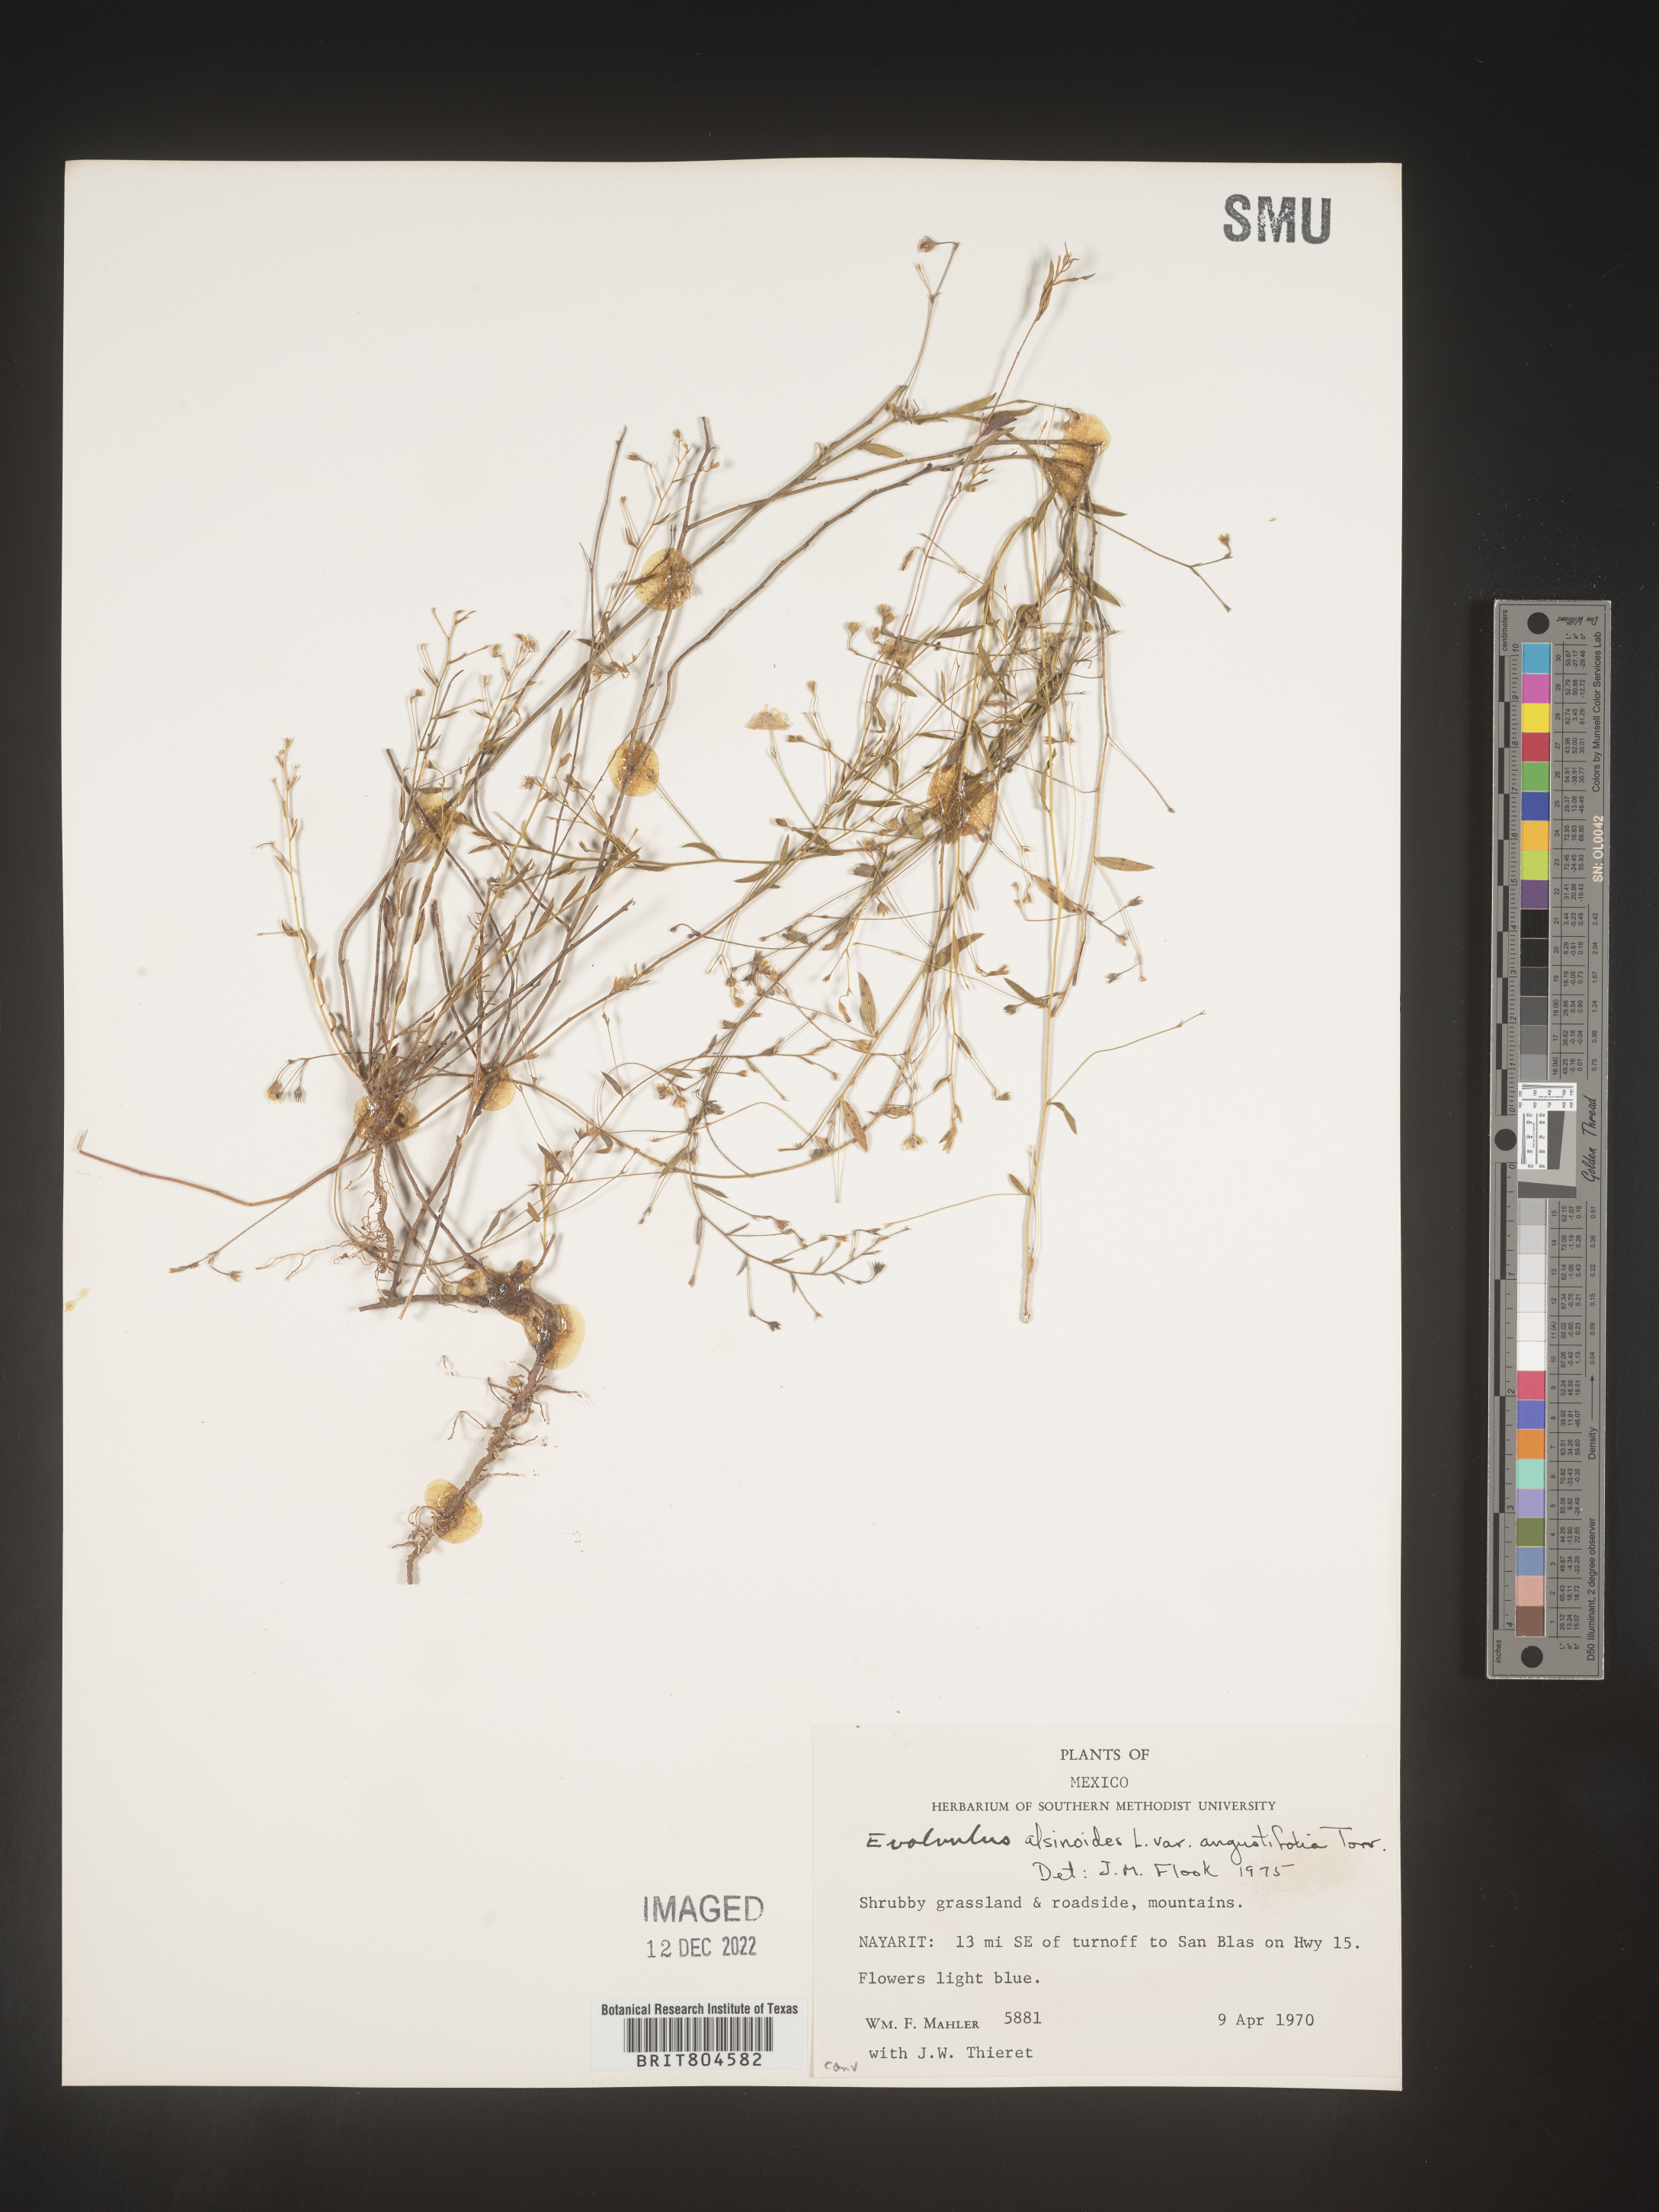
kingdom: Plantae
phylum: Tracheophyta
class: Magnoliopsida
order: Solanales
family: Convolvulaceae
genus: Evolvulus
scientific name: Evolvulus
